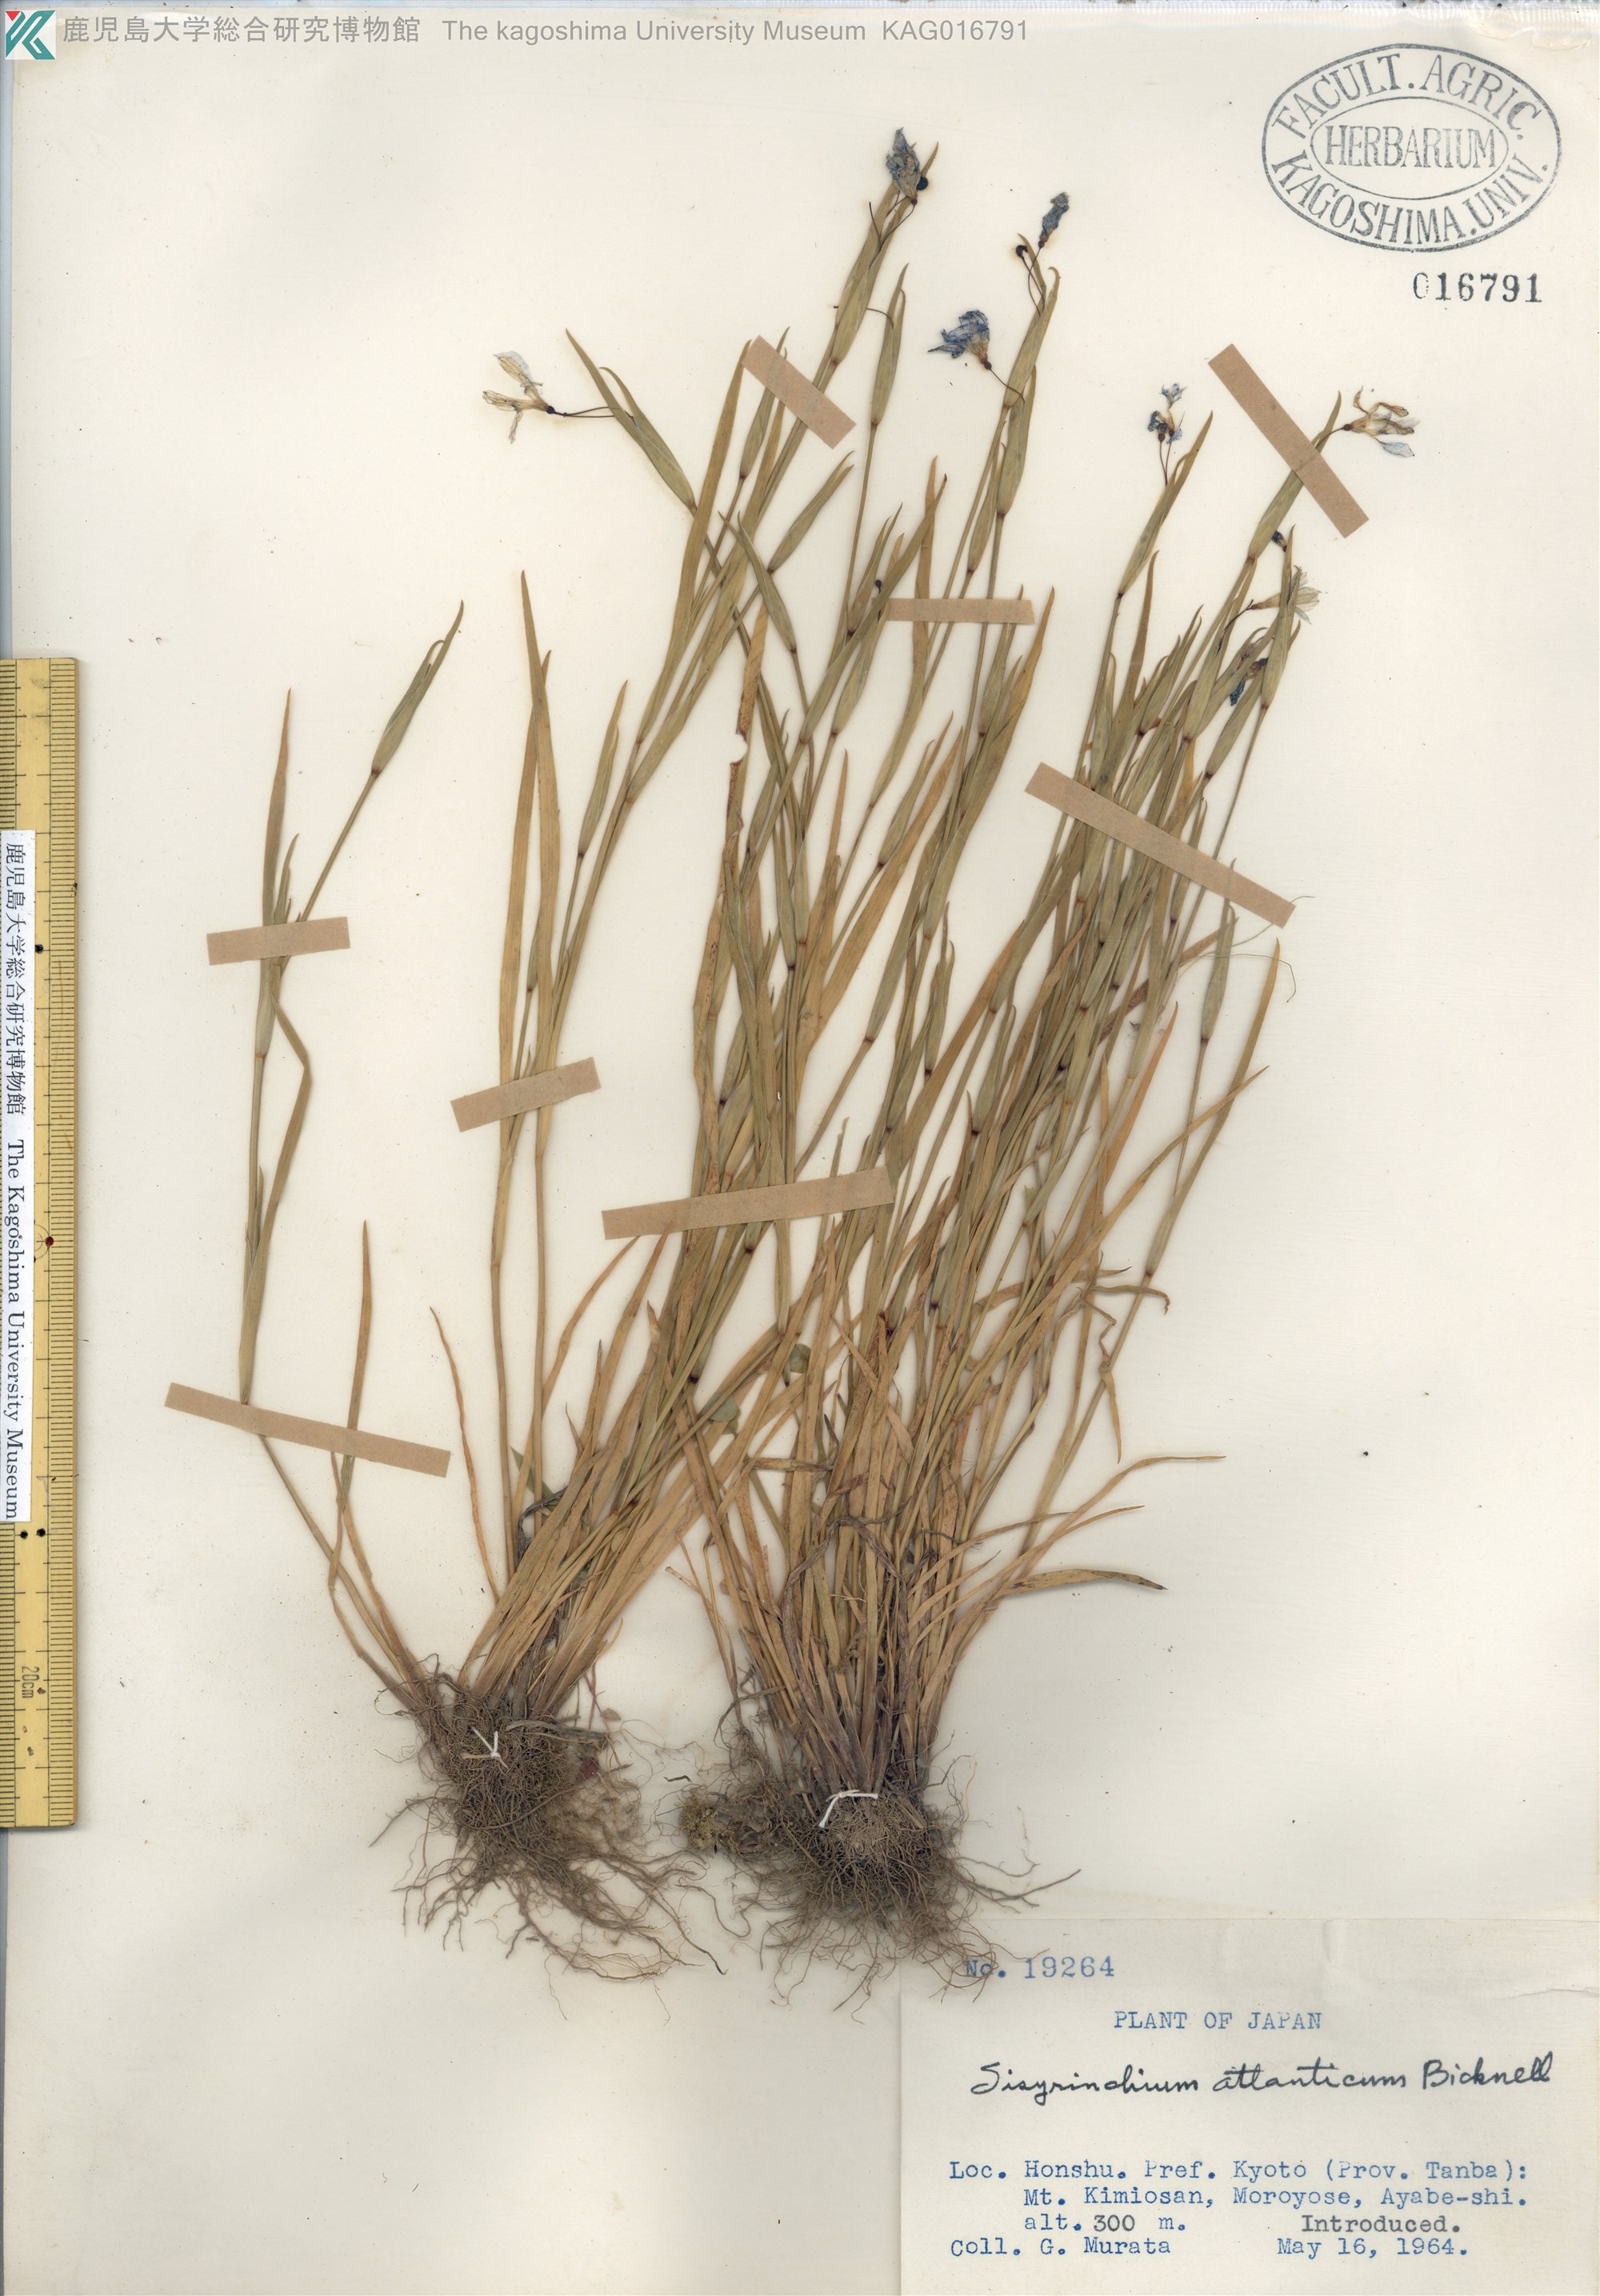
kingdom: Plantae
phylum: Tracheophyta
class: Liliopsida
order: Asparagales
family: Iridaceae
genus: Sisyrinchium
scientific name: Sisyrinchium rosulatum
